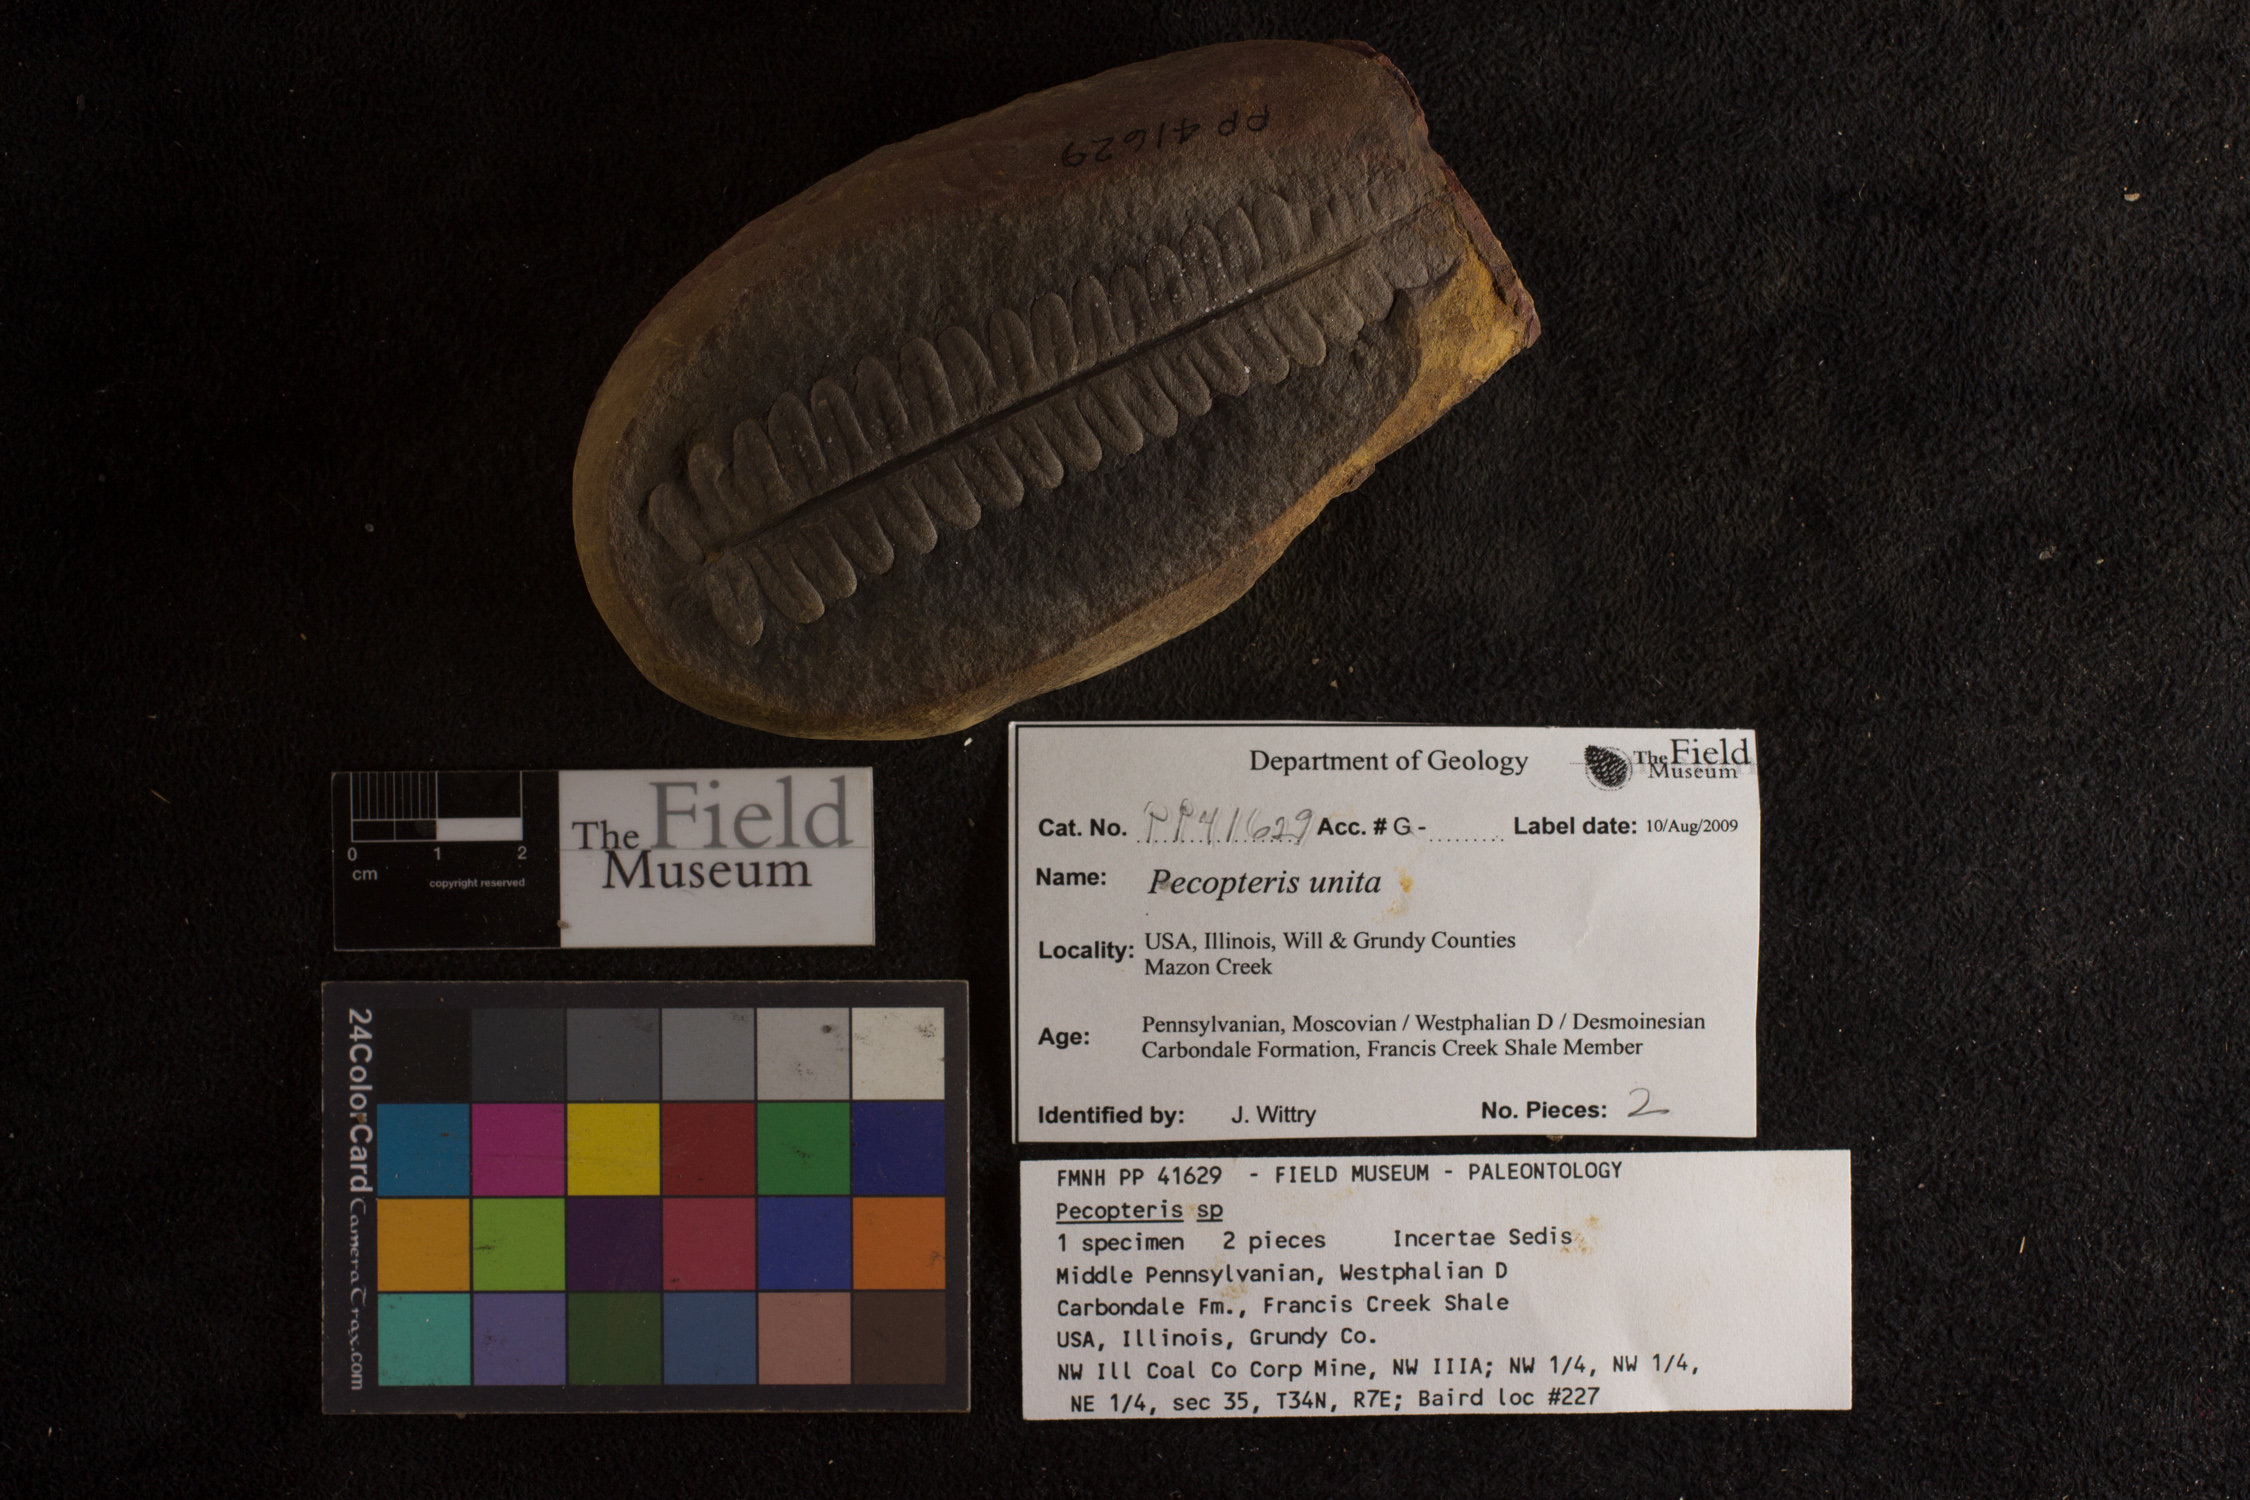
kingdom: Plantae
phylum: Tracheophyta
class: Polypodiopsida
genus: Diplazites
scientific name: Diplazites
